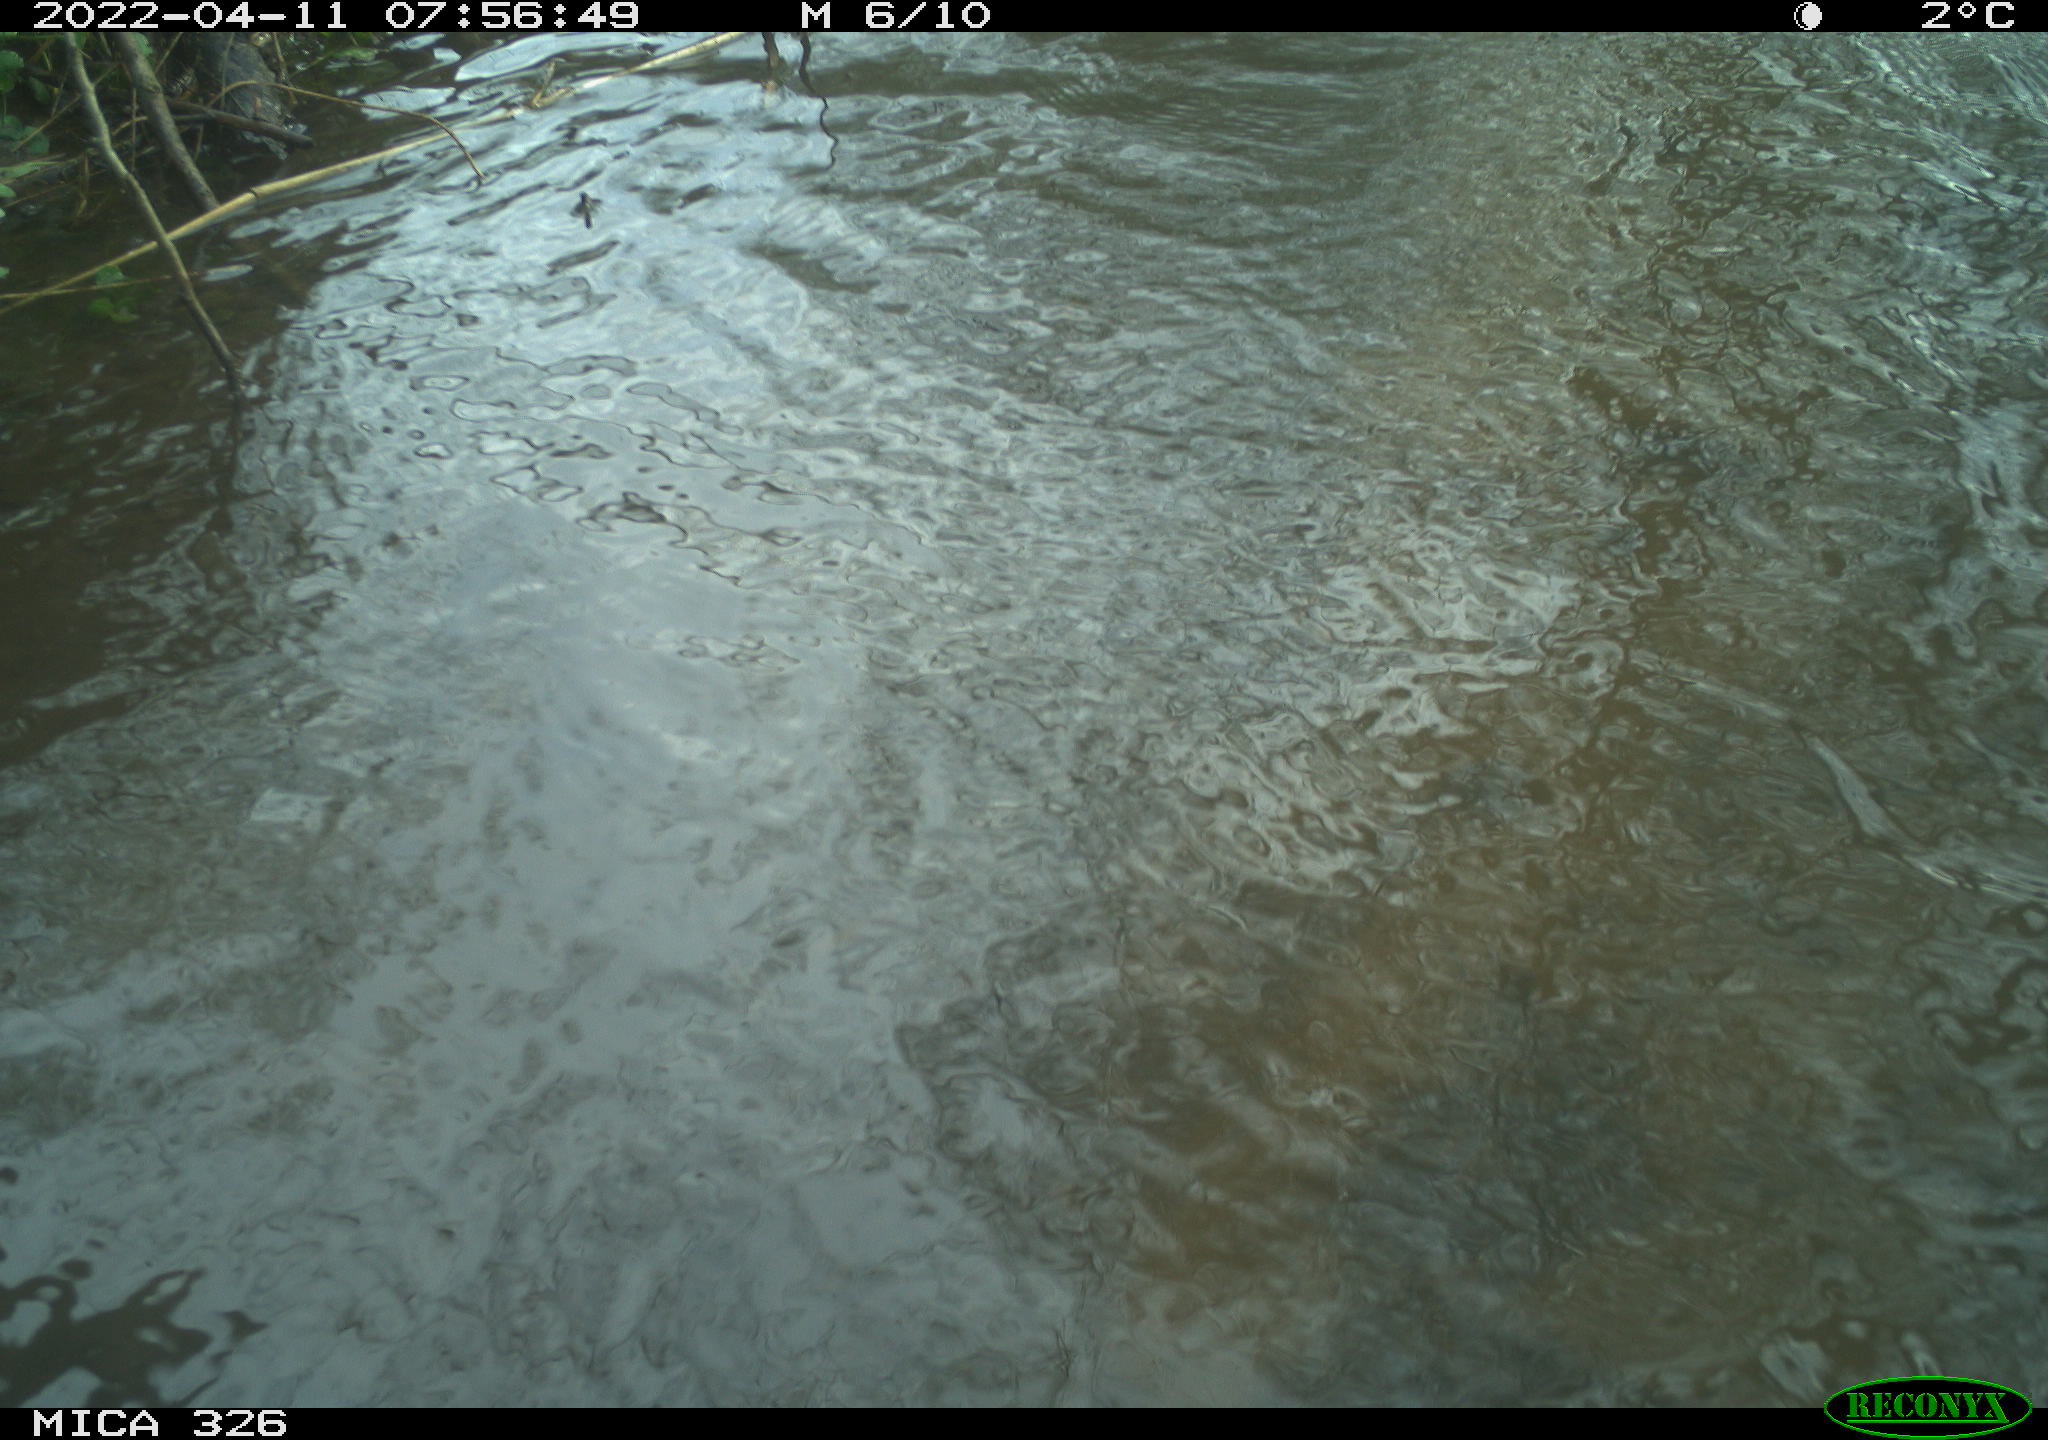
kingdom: Animalia
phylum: Chordata
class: Mammalia
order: Rodentia
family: Cricetidae
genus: Ondatra
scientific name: Ondatra zibethicus
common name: Muskrat
